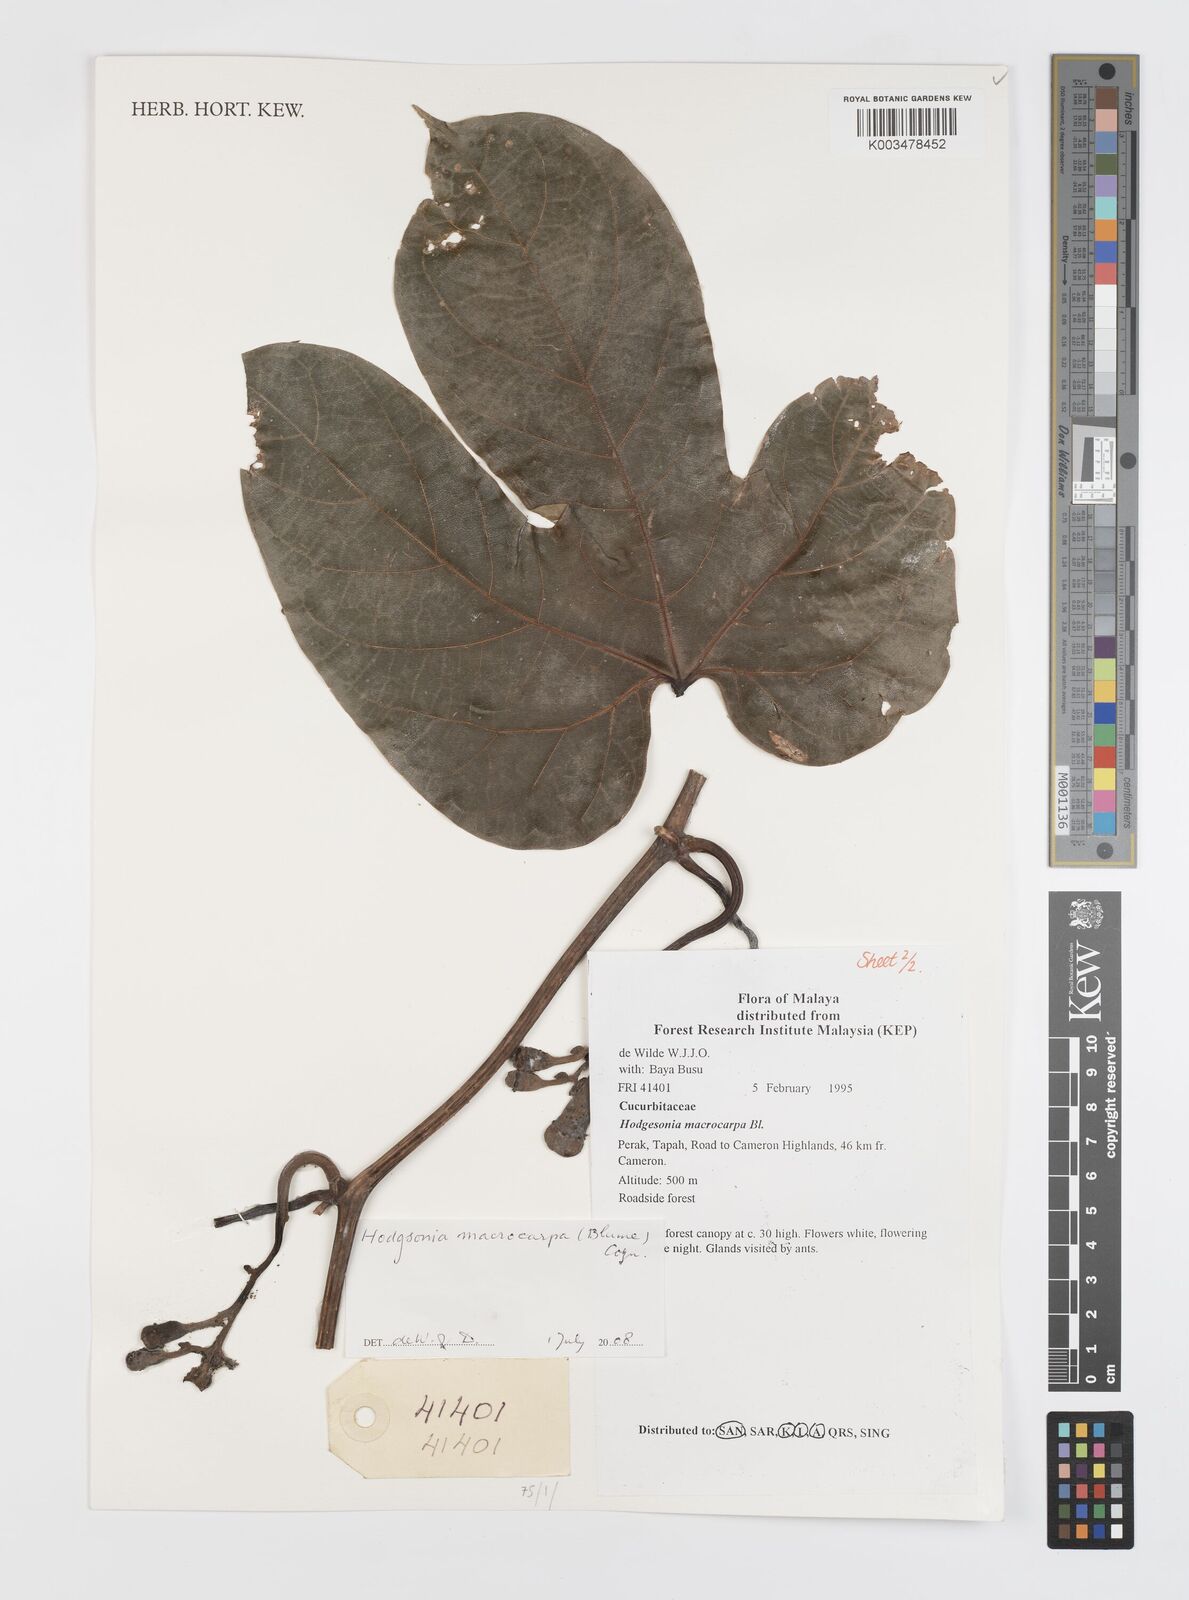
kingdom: Plantae
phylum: Tracheophyta
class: Magnoliopsida
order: Cucurbitales
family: Cucurbitaceae
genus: Hodgsonia
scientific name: Hodgsonia macrocarpa
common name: Chinese lardfruit
